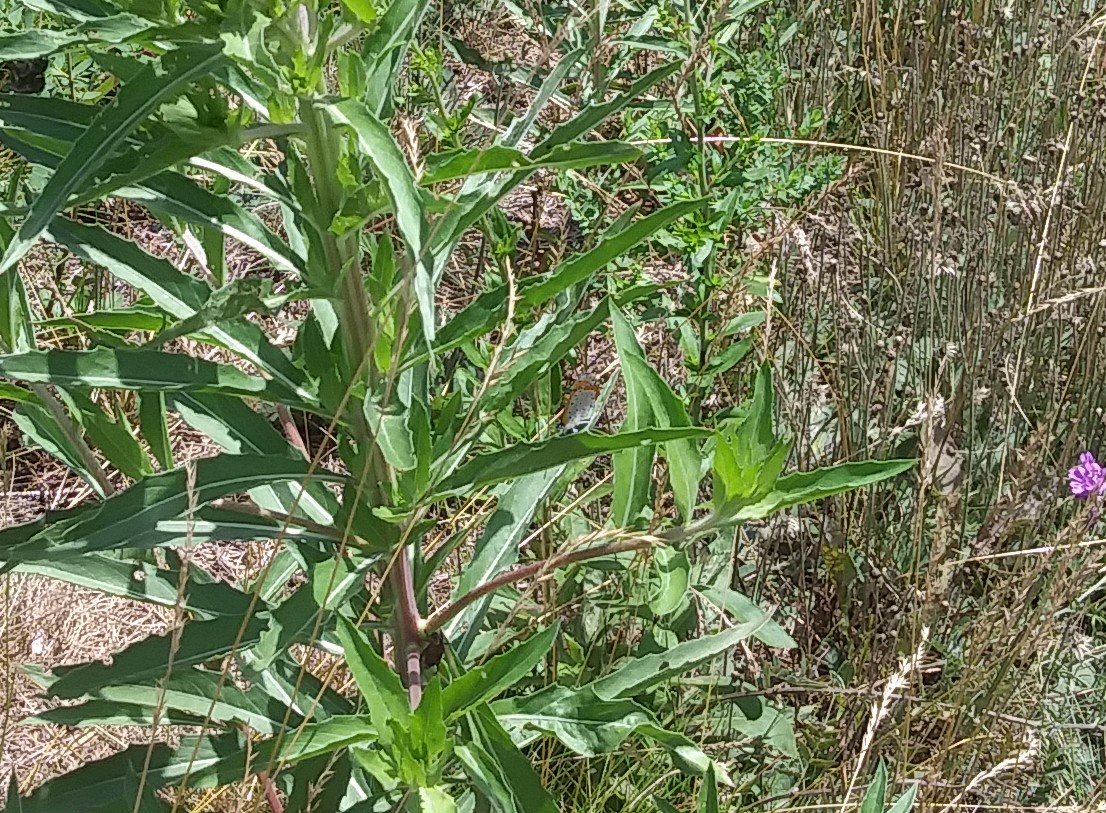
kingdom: Animalia
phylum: Arthropoda
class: Insecta
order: Lepidoptera
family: Sesiidae
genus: Sesia
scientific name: Sesia Lycaena hyllus
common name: Bronze Copper
